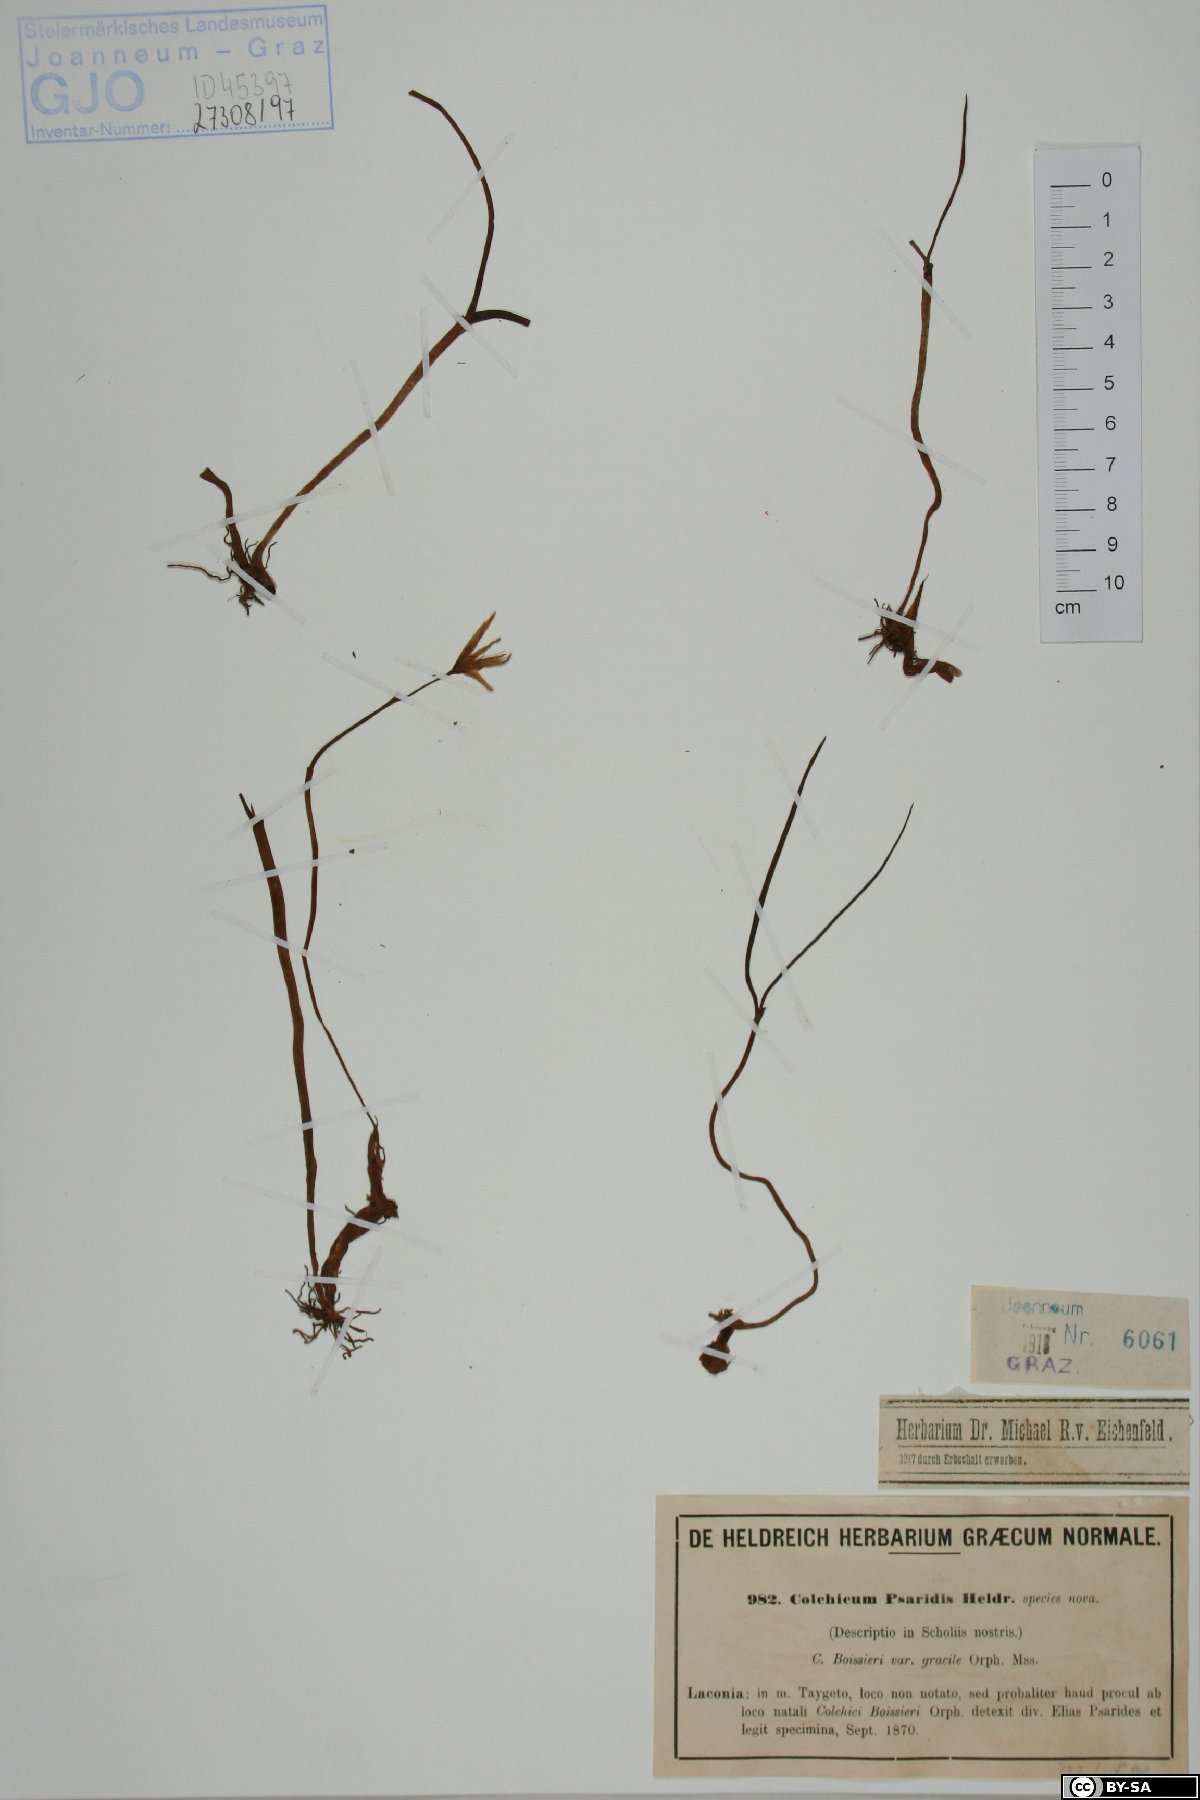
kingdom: Plantae
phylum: Tracheophyta
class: Liliopsida
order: Liliales
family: Colchicaceae
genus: Colchicum
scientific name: Colchicum zahnii
